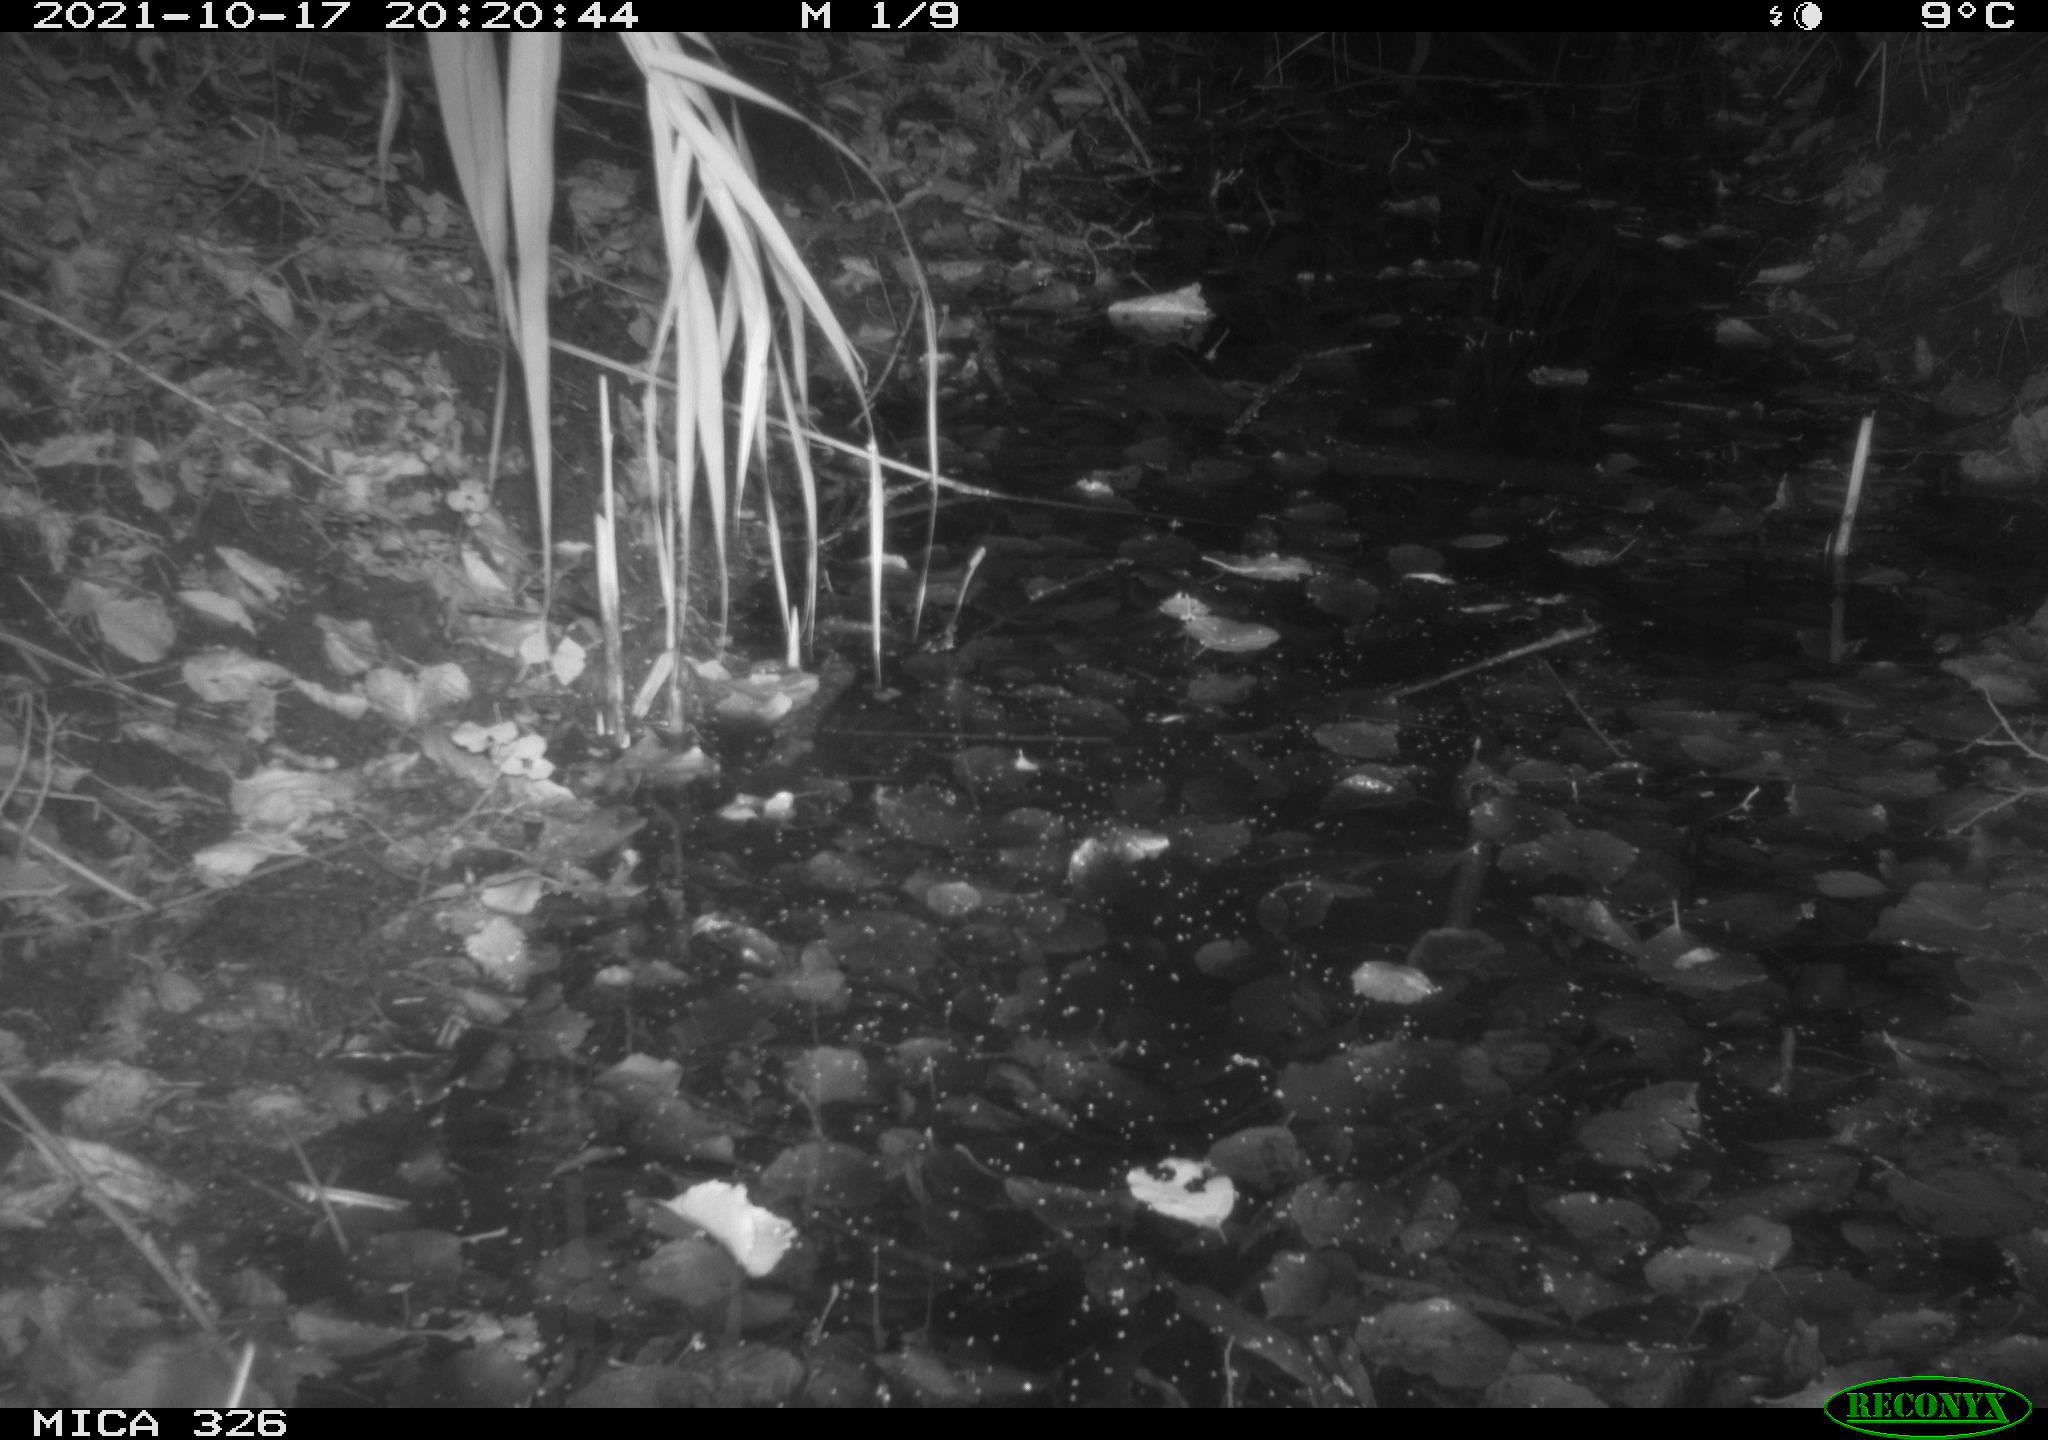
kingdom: Animalia
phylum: Chordata
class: Mammalia
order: Rodentia
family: Muridae
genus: Rattus
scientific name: Rattus norvegicus
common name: Brown rat
